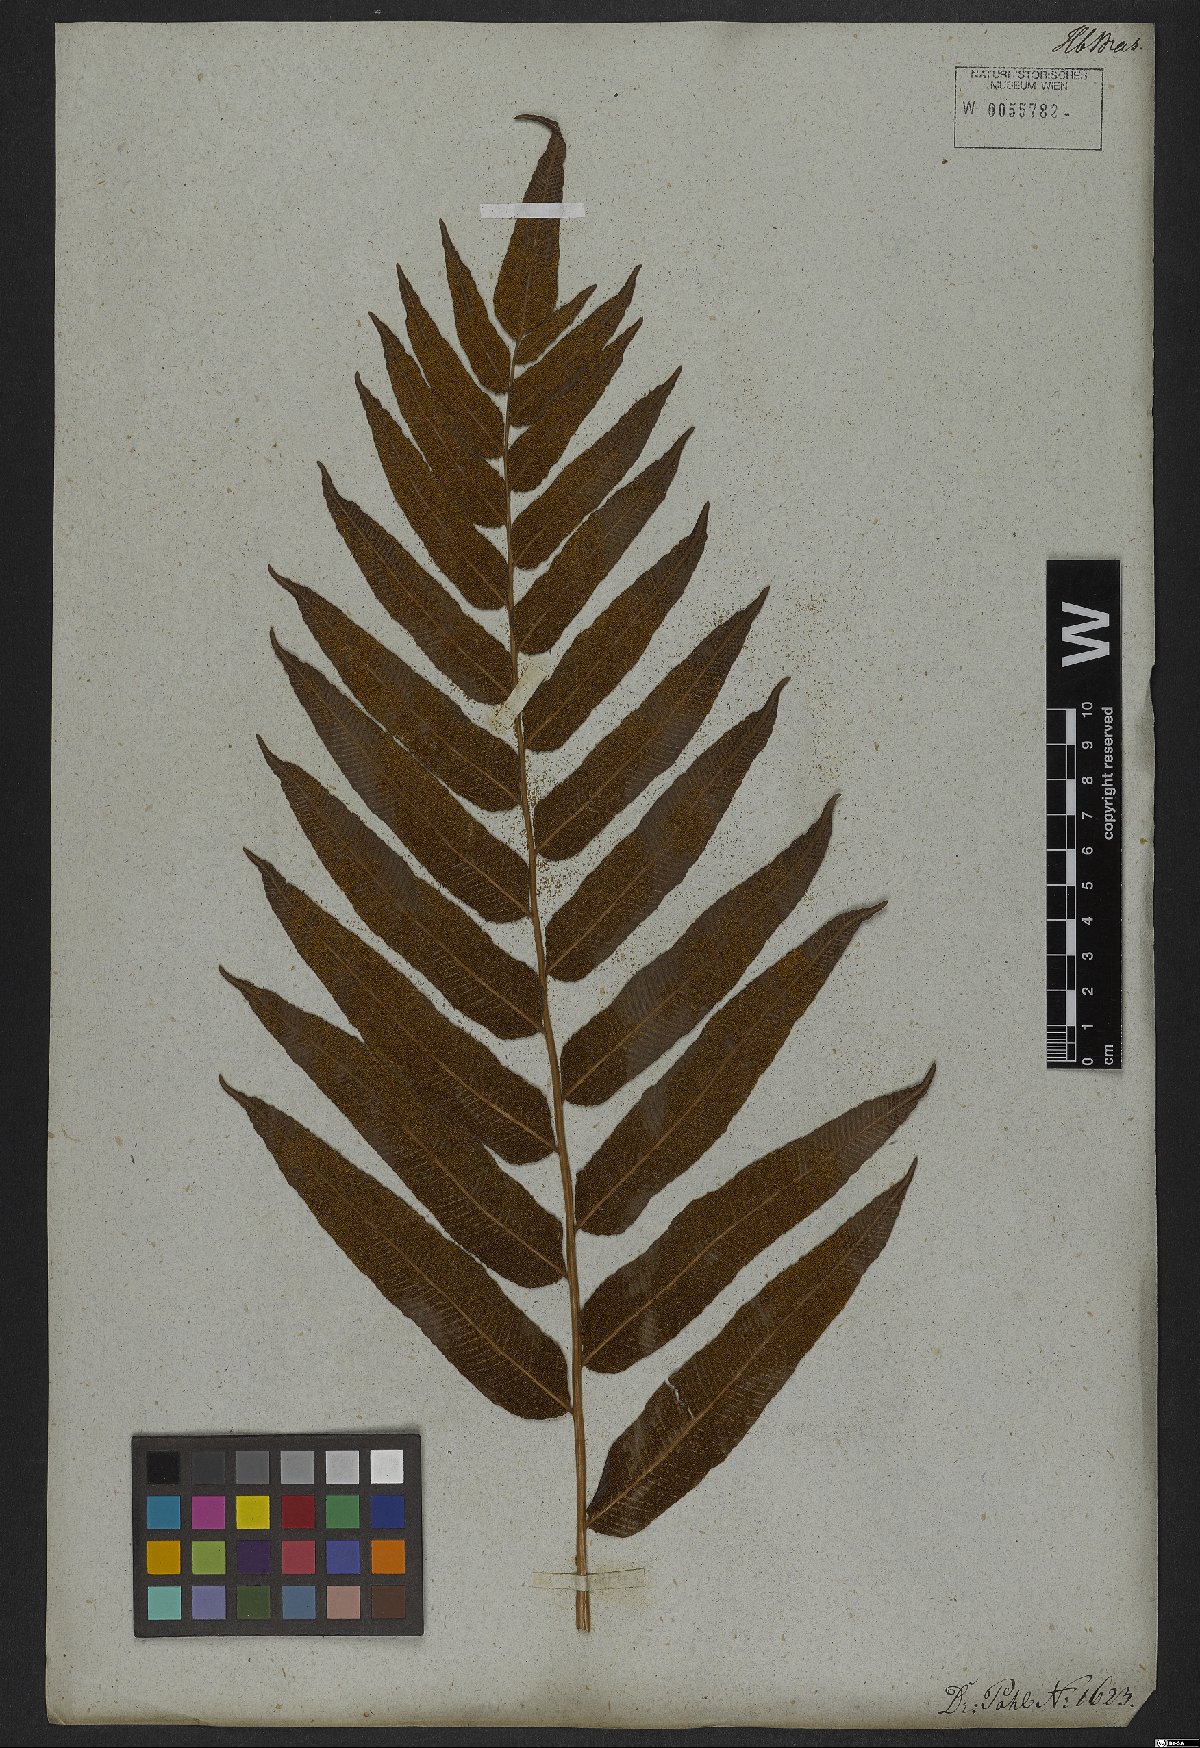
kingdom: Plantae
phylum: Tracheophyta
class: Polypodiopsida
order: Polypodiales
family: Thelypteridaceae
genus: Meniscium
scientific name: Meniscium reticulatum
